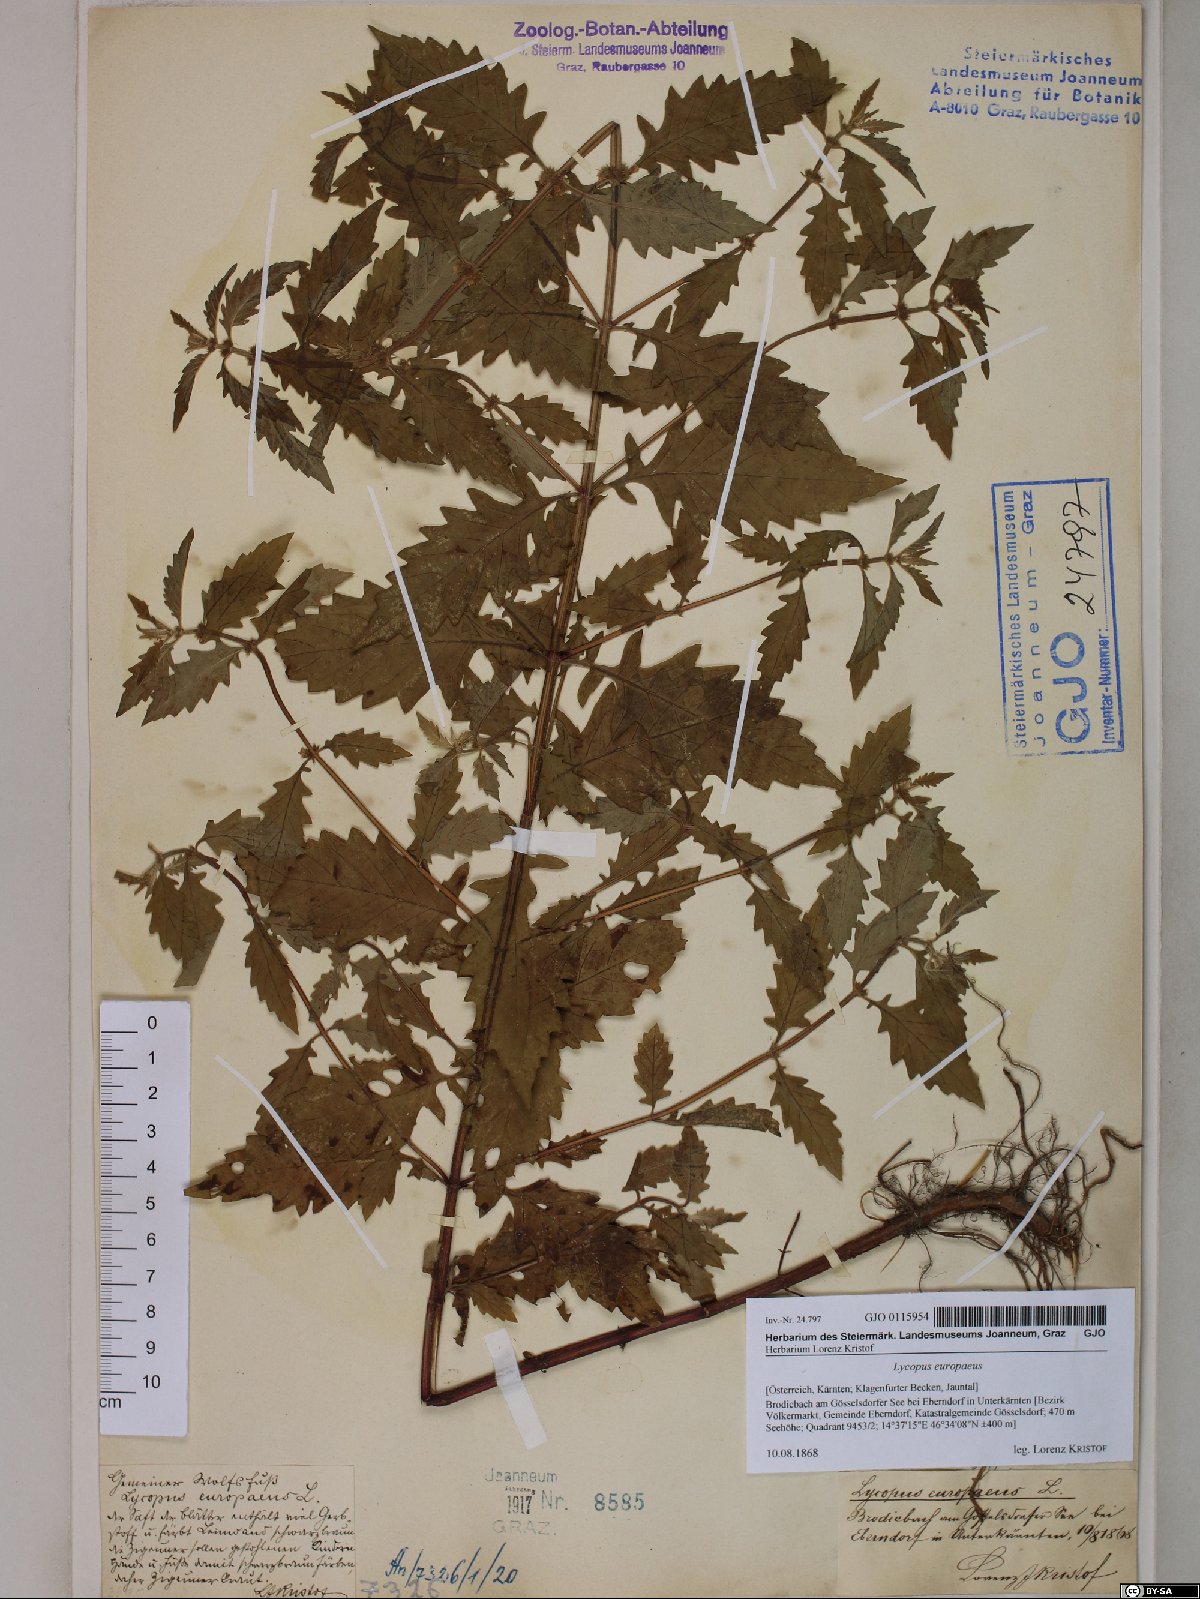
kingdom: Plantae
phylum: Tracheophyta
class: Magnoliopsida
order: Lamiales
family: Lamiaceae
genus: Lycopus
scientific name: Lycopus europaeus
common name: European bugleweed
